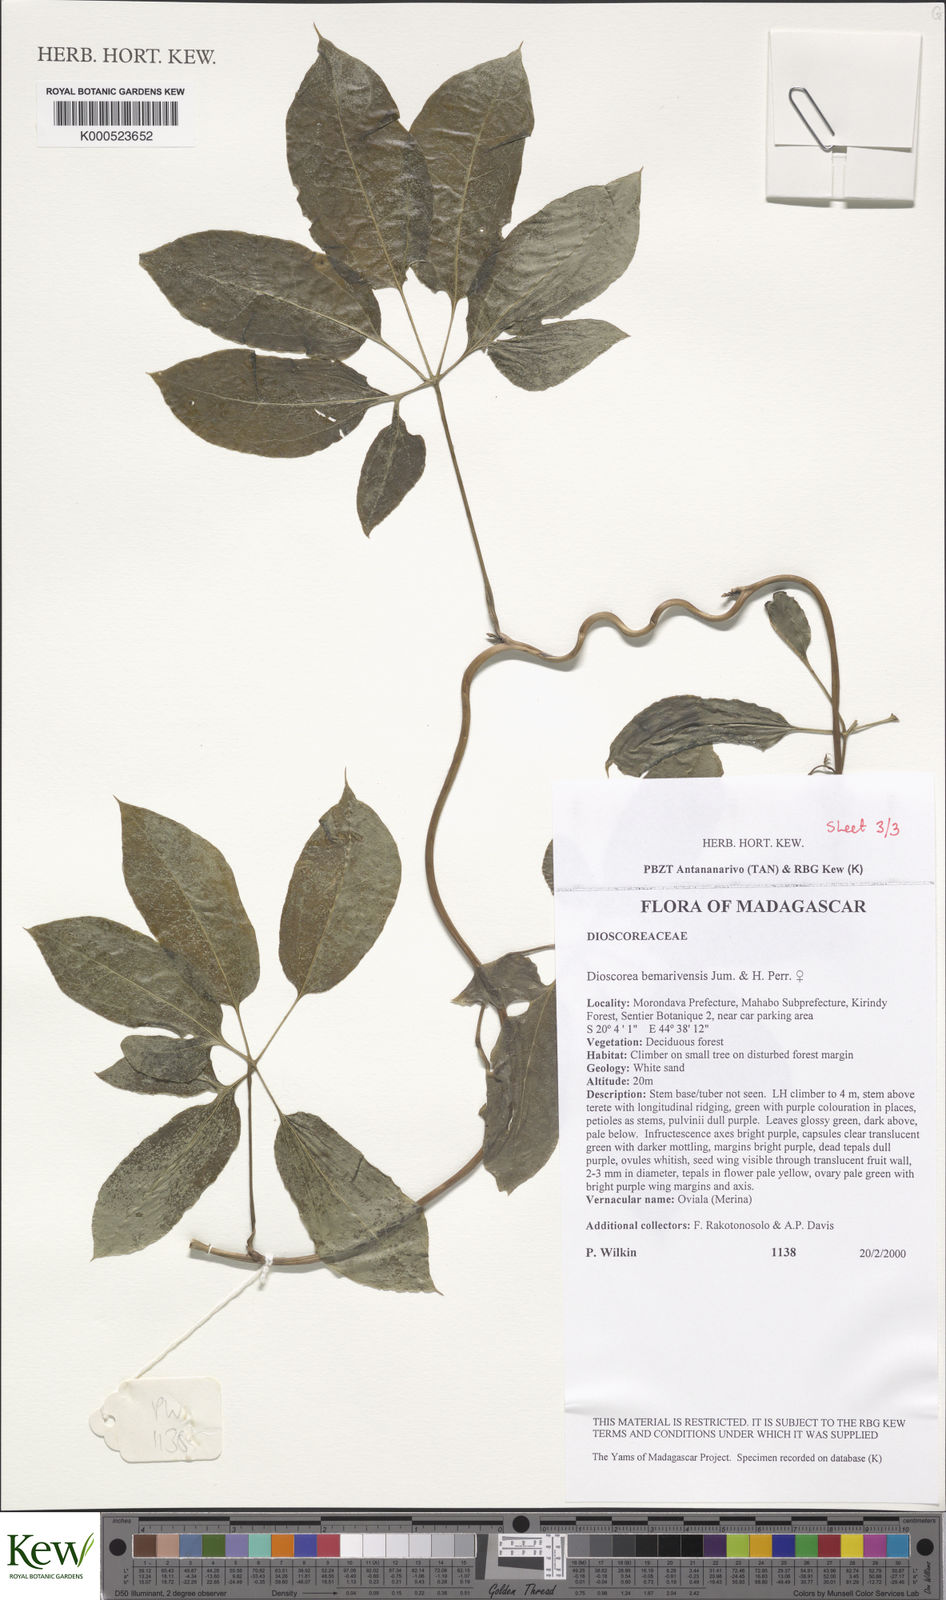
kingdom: Plantae
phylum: Tracheophyta
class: Liliopsida
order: Dioscoreales
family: Dioscoreaceae
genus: Dioscorea
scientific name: Dioscorea bemarivensis
